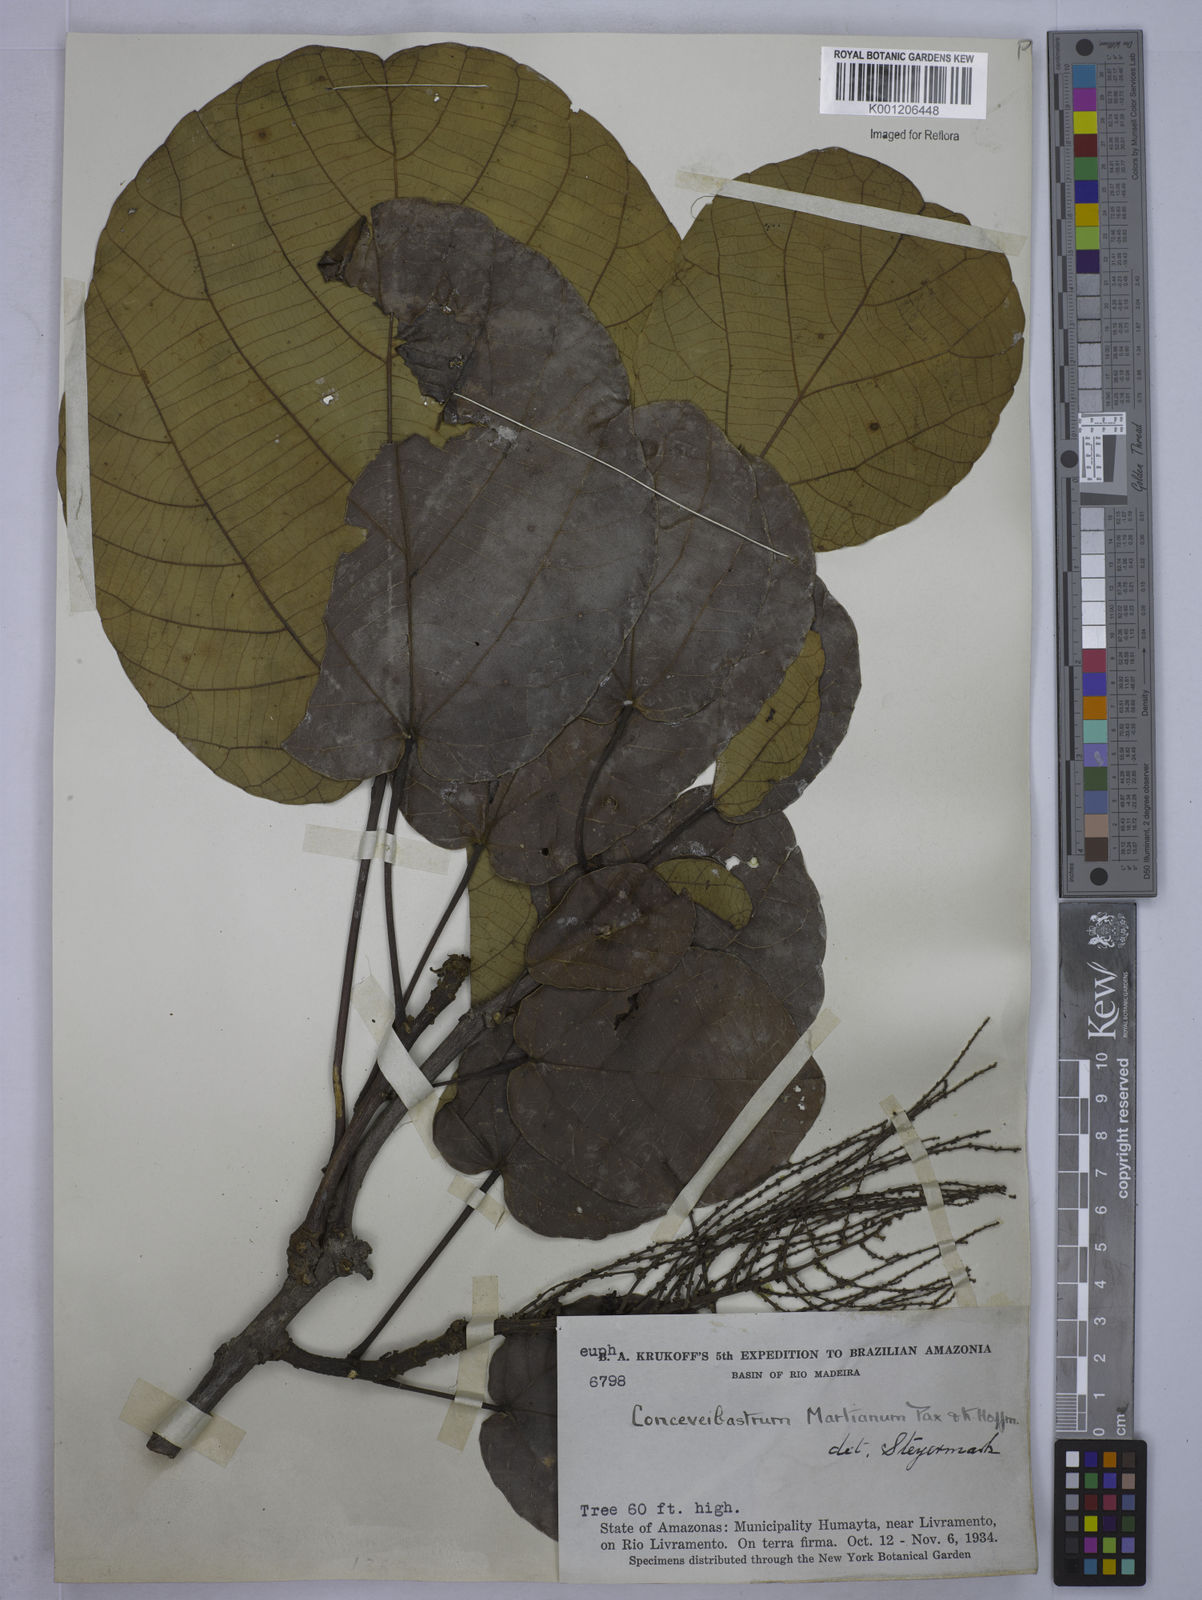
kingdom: Plantae
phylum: Tracheophyta
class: Magnoliopsida
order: Malpighiales
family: Euphorbiaceae
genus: Conceveiba
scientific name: Conceveiba martiana
